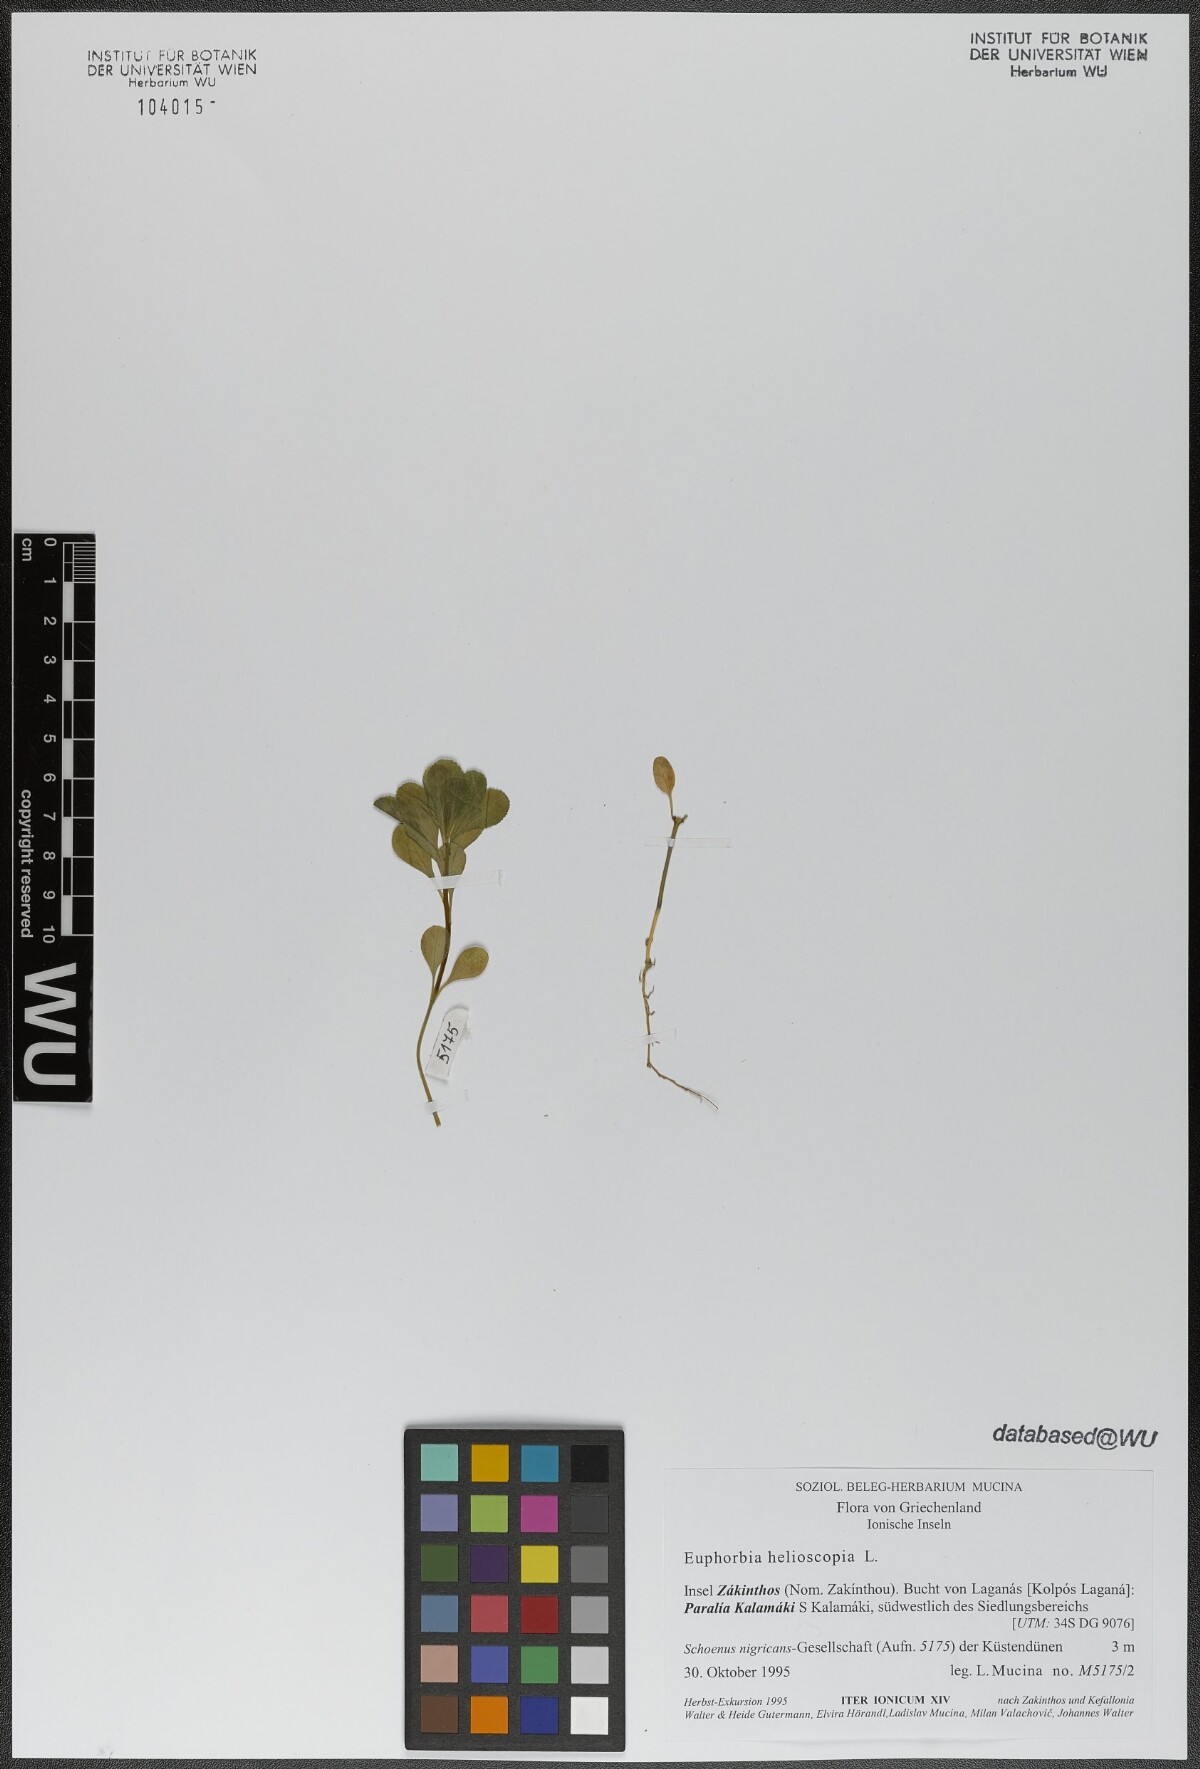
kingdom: Plantae
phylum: Tracheophyta
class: Magnoliopsida
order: Malpighiales
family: Euphorbiaceae
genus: Euphorbia
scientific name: Euphorbia helioscopia
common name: Sun spurge
